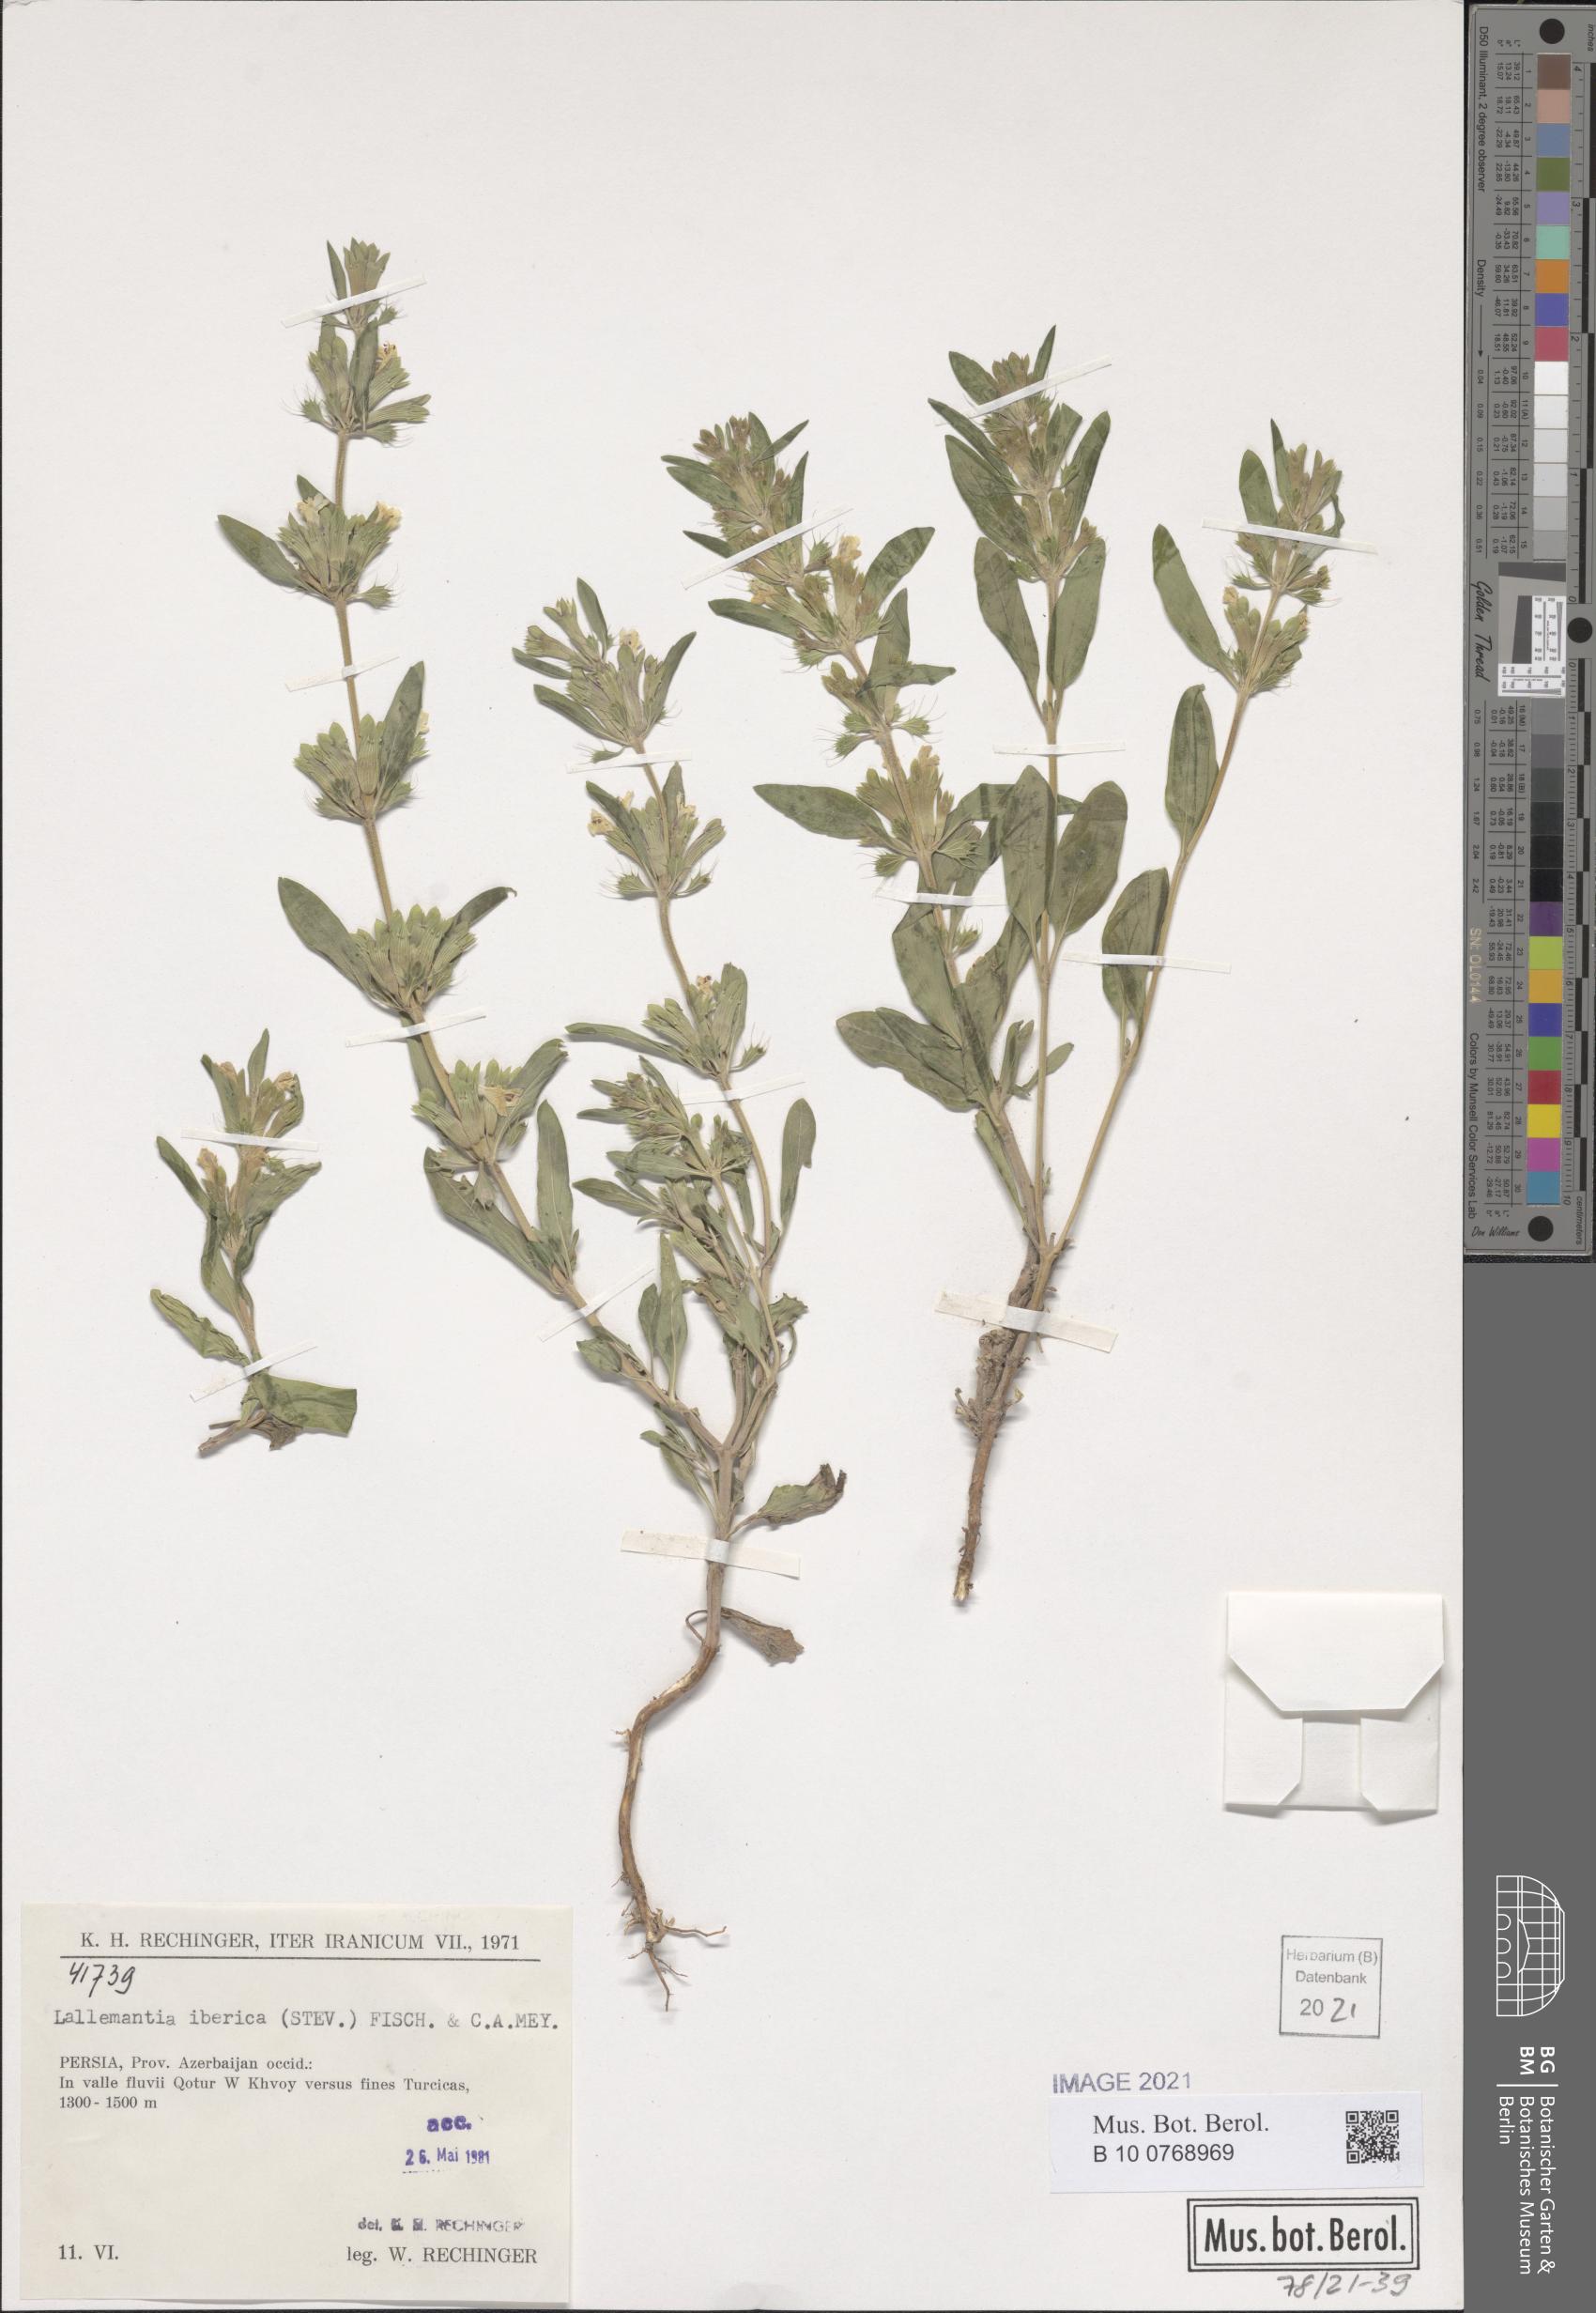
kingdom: Plantae
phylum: Tracheophyta
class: Magnoliopsida
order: Lamiales
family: Lamiaceae
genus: Lallemantia
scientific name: Lallemantia iberica
